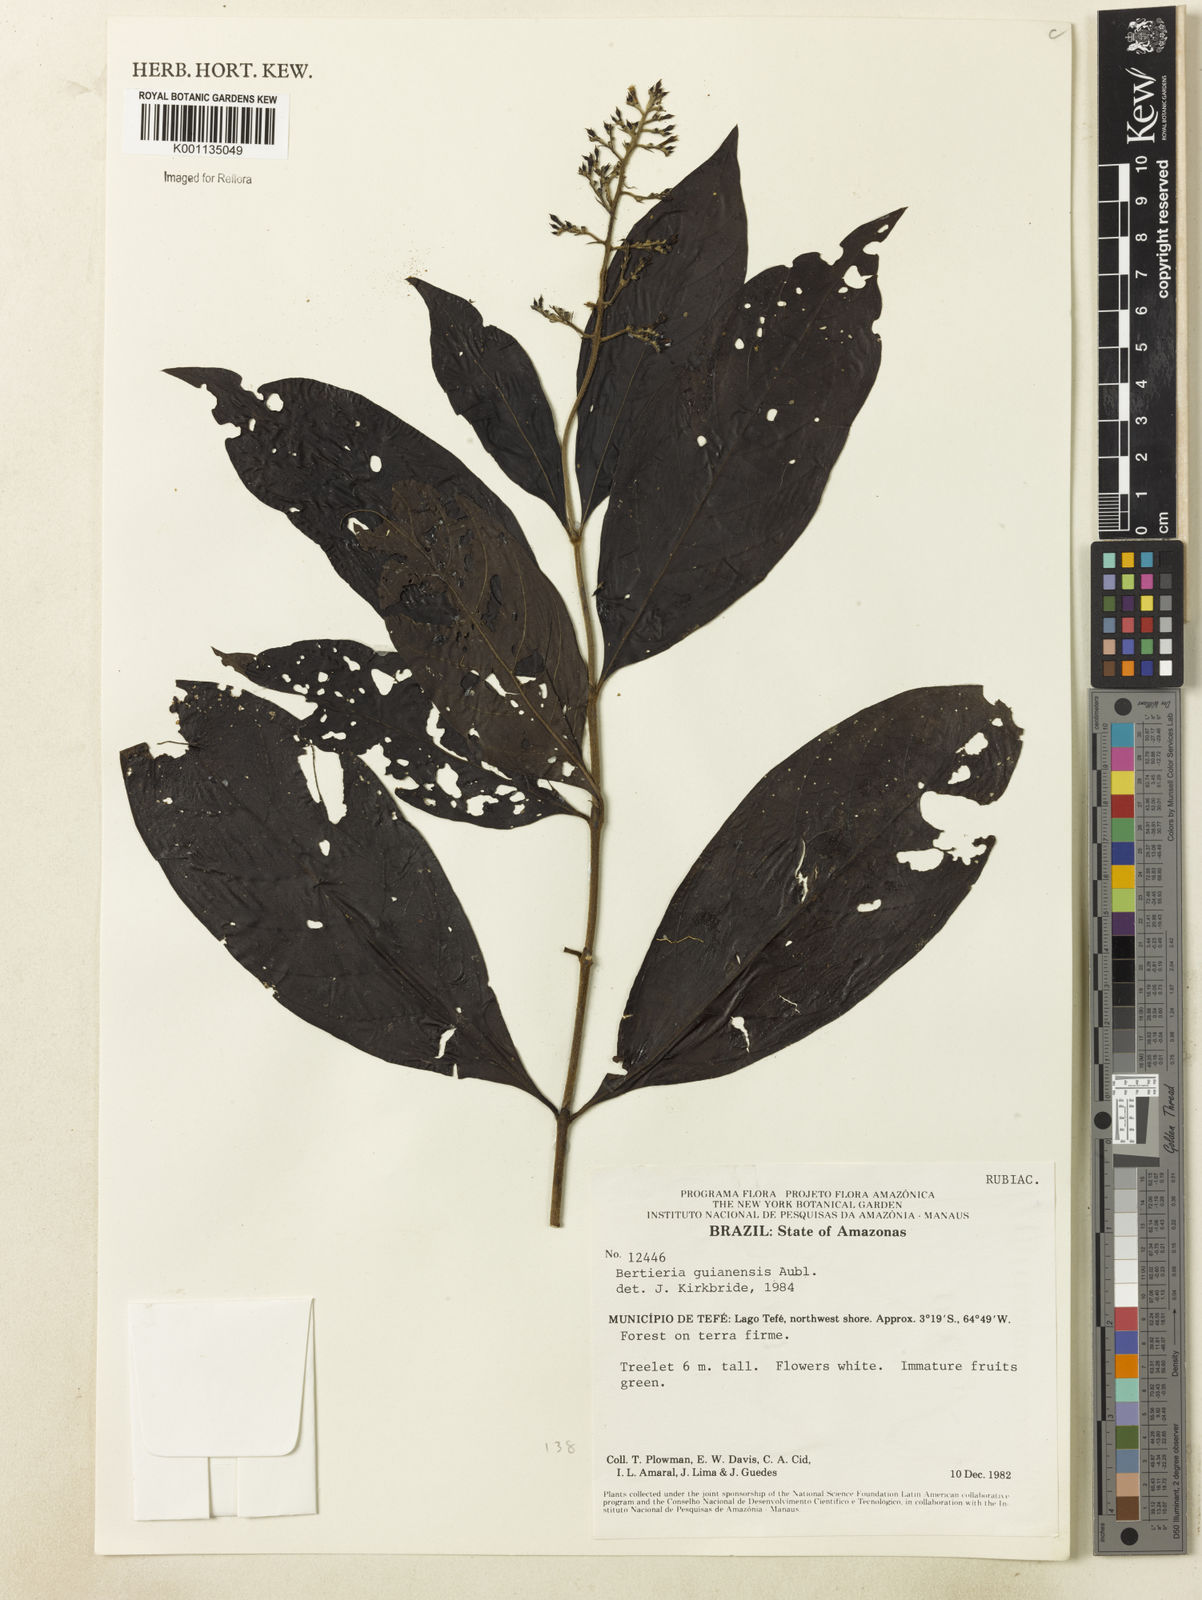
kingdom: Plantae
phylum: Tracheophyta
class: Magnoliopsida
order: Gentianales
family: Rubiaceae
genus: Bertiera
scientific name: Bertiera guianensis
